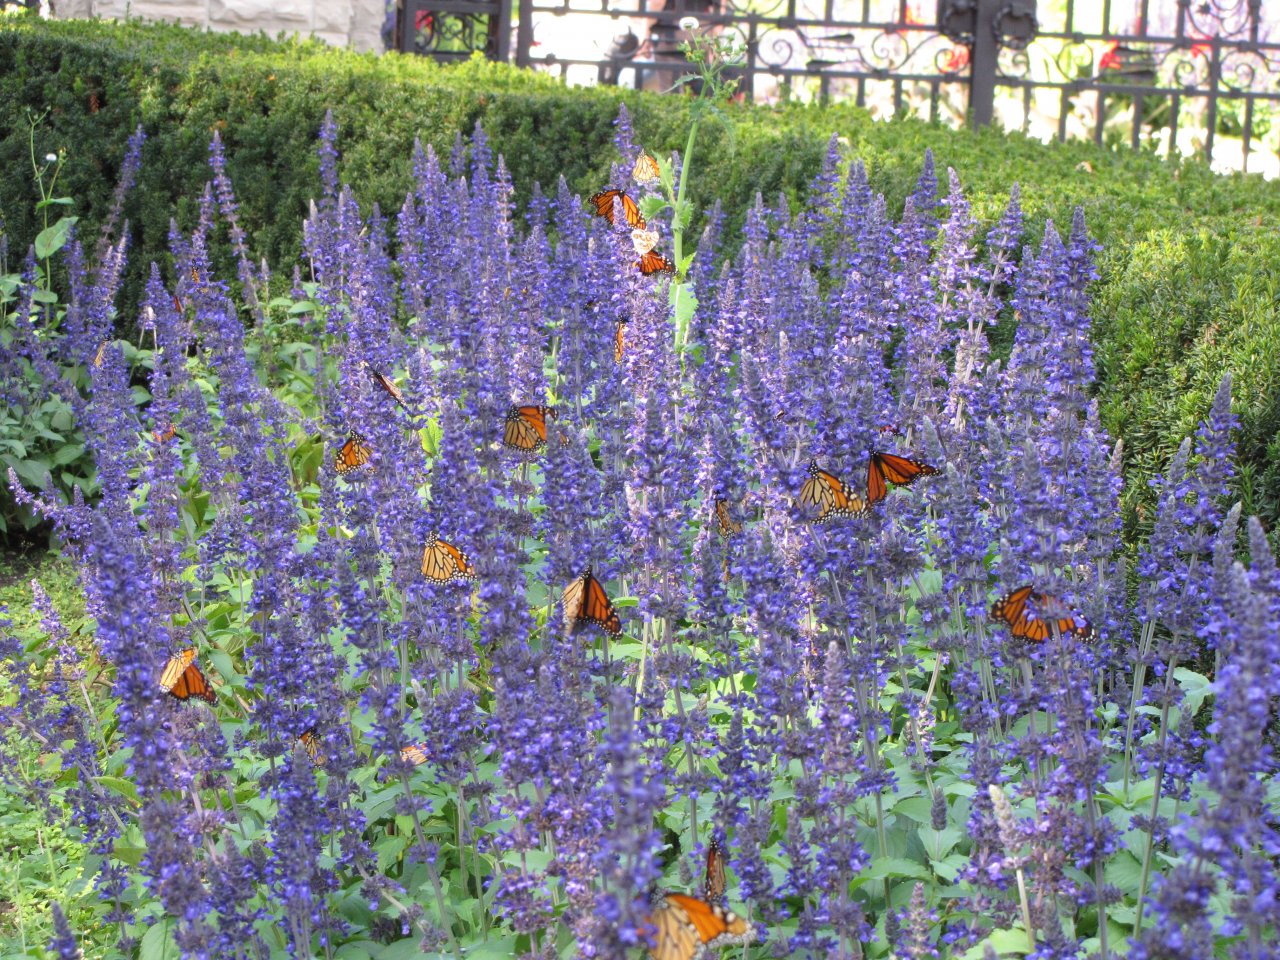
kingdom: Animalia
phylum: Arthropoda
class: Insecta
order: Lepidoptera
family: Nymphalidae
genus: Danaus
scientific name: Danaus plexippus
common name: Monarch
